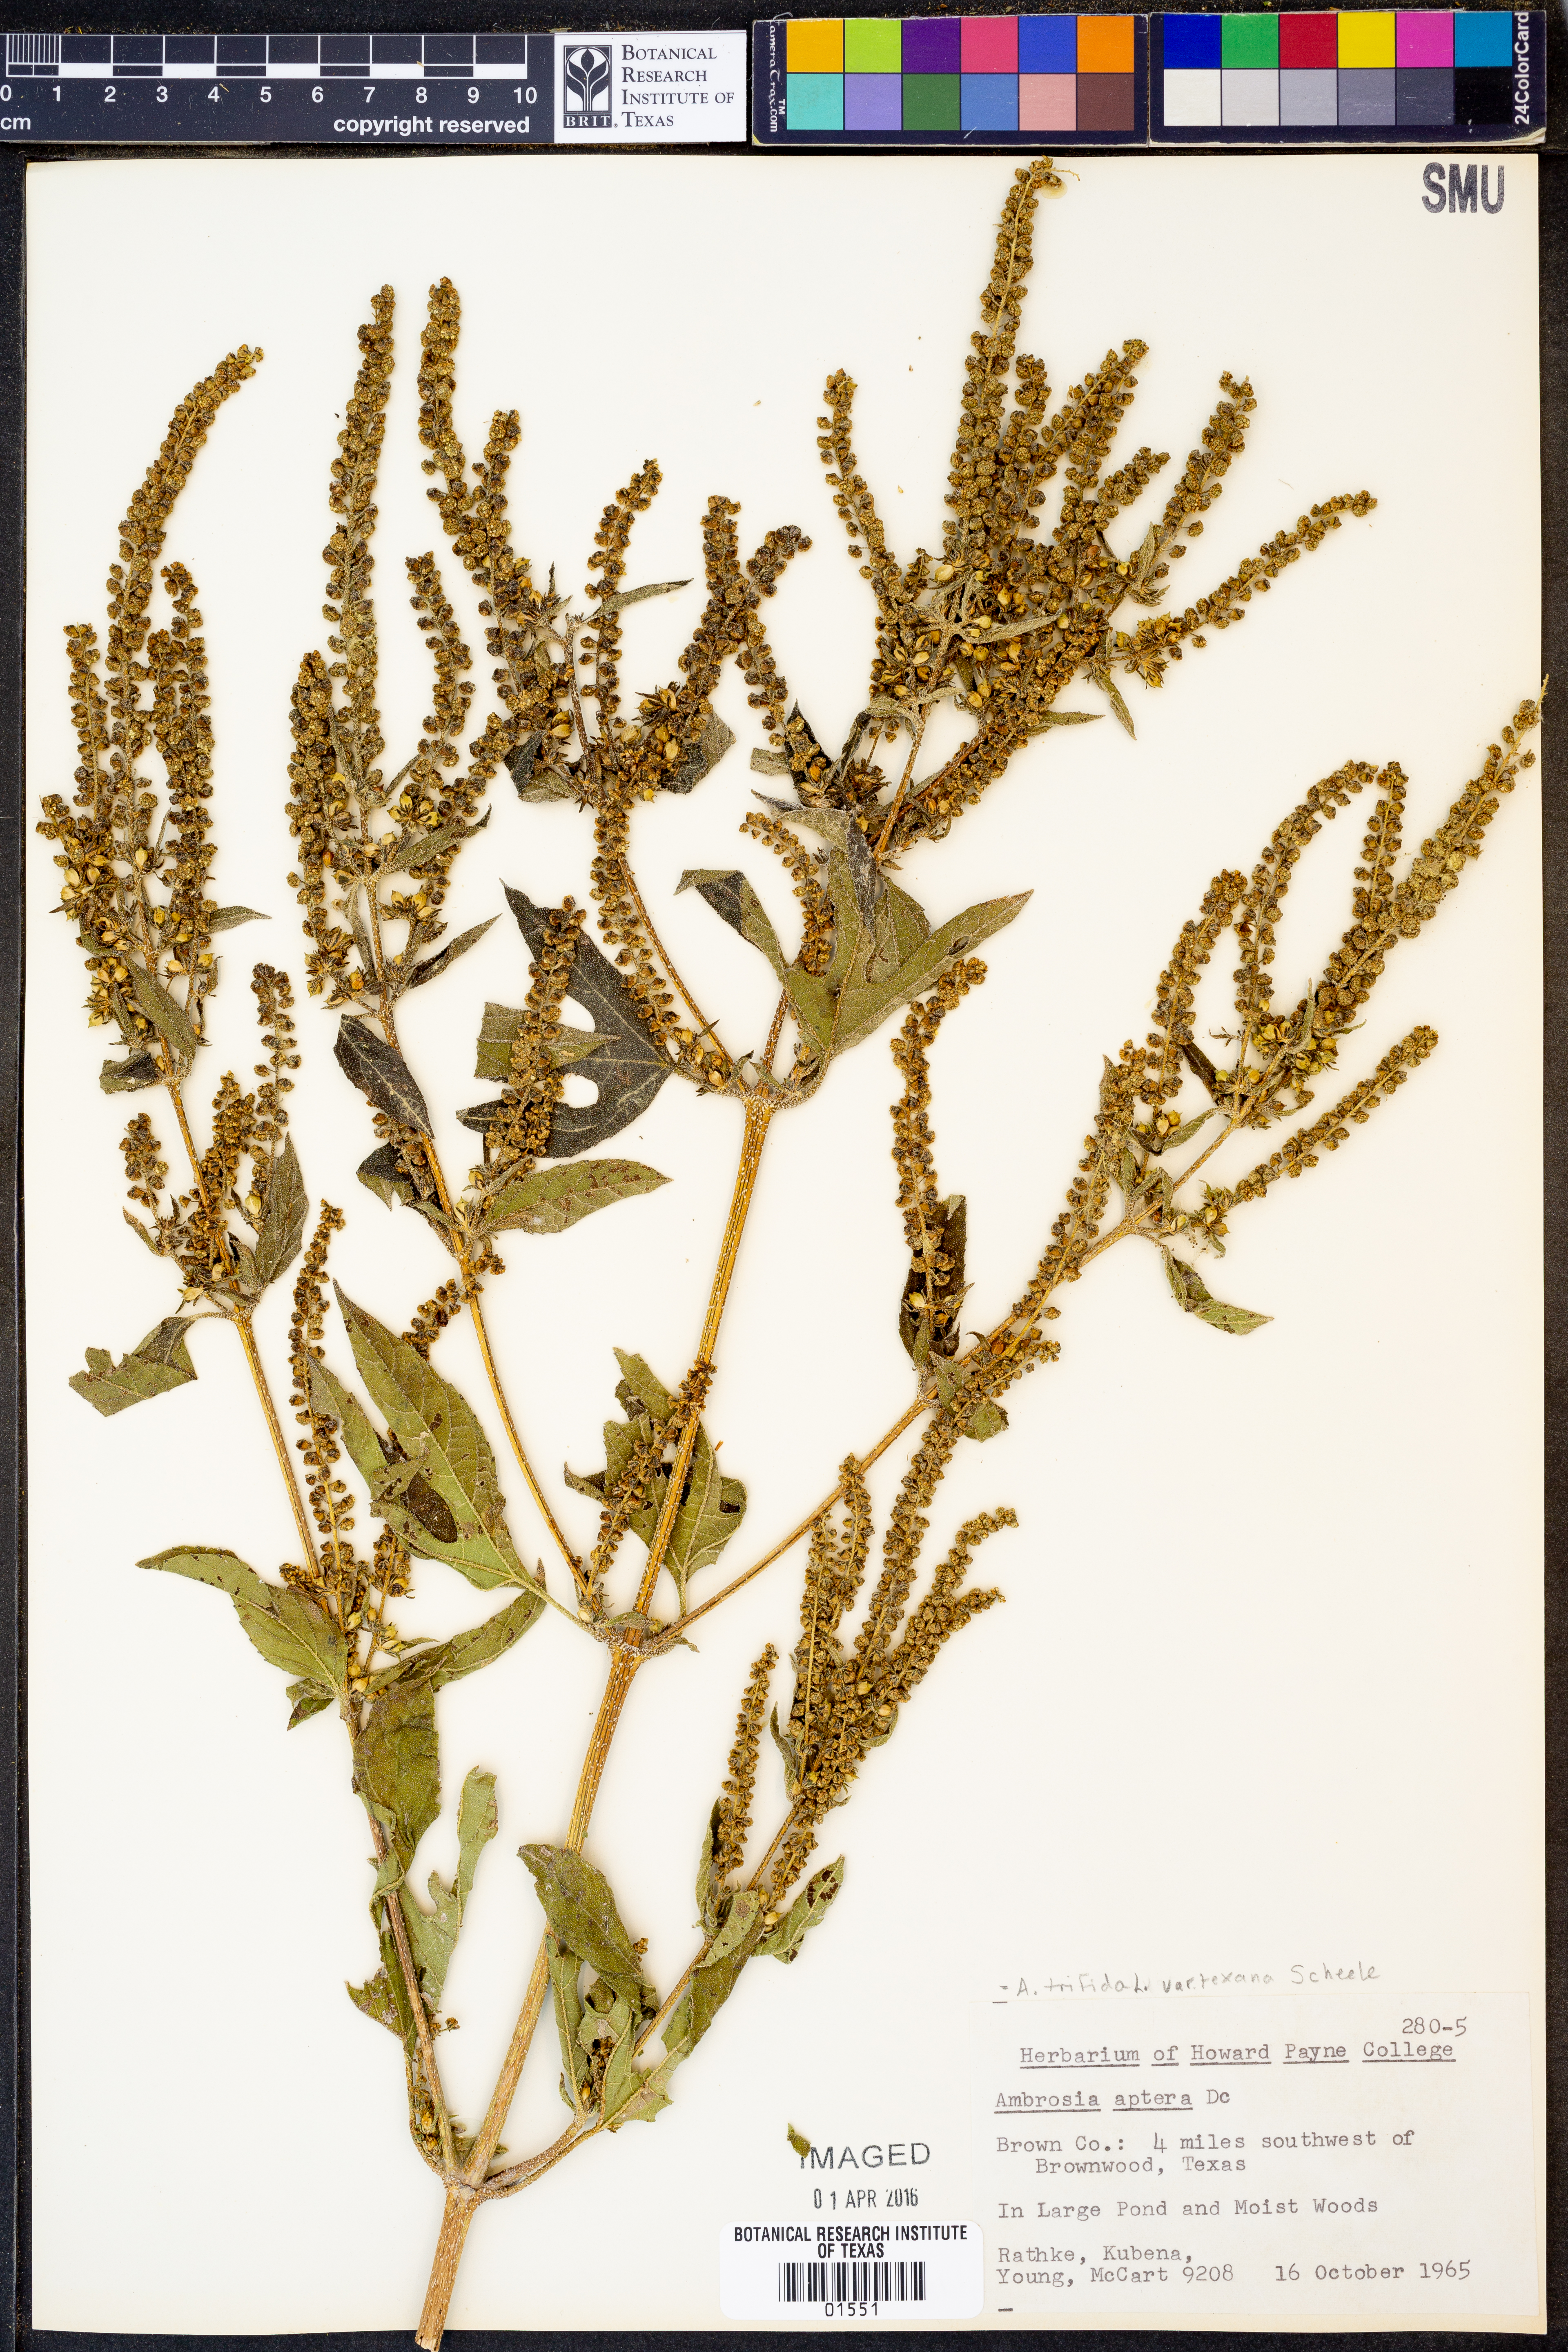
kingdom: Plantae
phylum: Tracheophyta
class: Magnoliopsida
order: Asterales
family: Asteraceae
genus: Ambrosia
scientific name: Ambrosia trifida
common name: Giant ragweed
